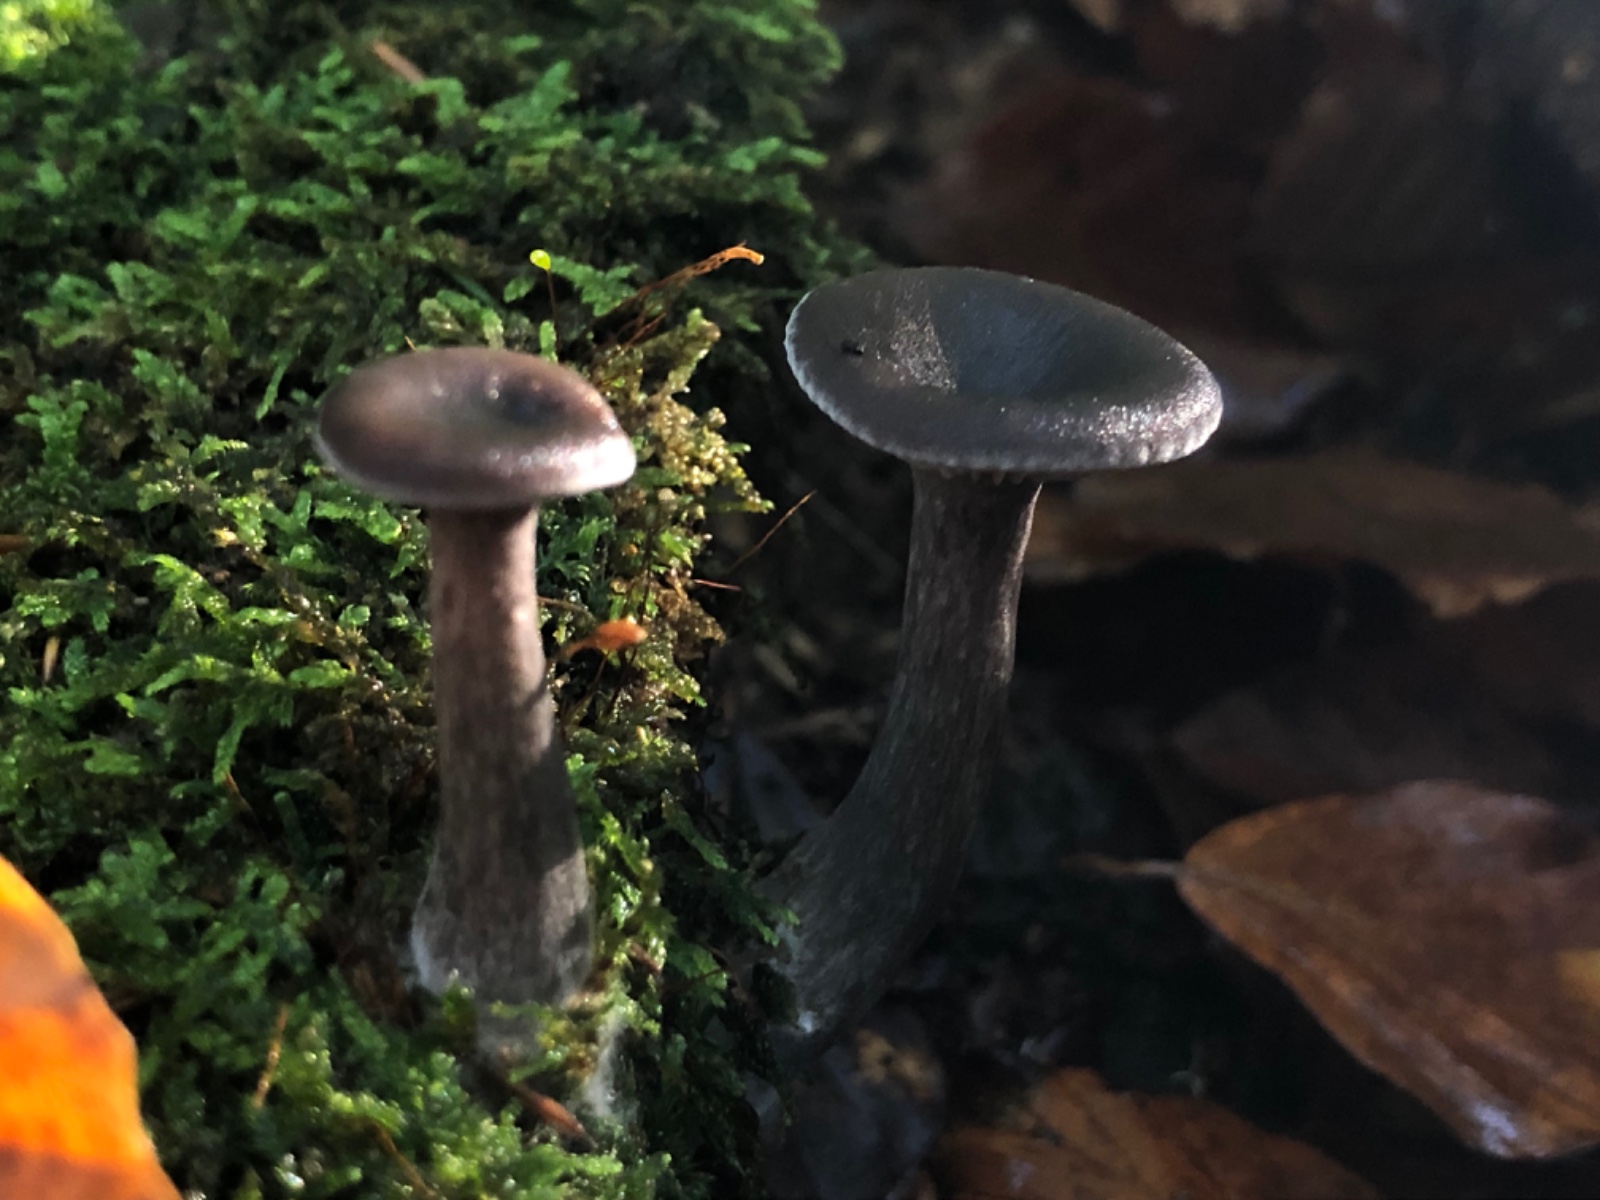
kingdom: Fungi
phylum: Basidiomycota
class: Agaricomycetes
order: Agaricales
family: Pseudoclitocybaceae
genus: Pseudoclitocybe
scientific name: Pseudoclitocybe cyathiformis
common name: almindelig bægertragthat
